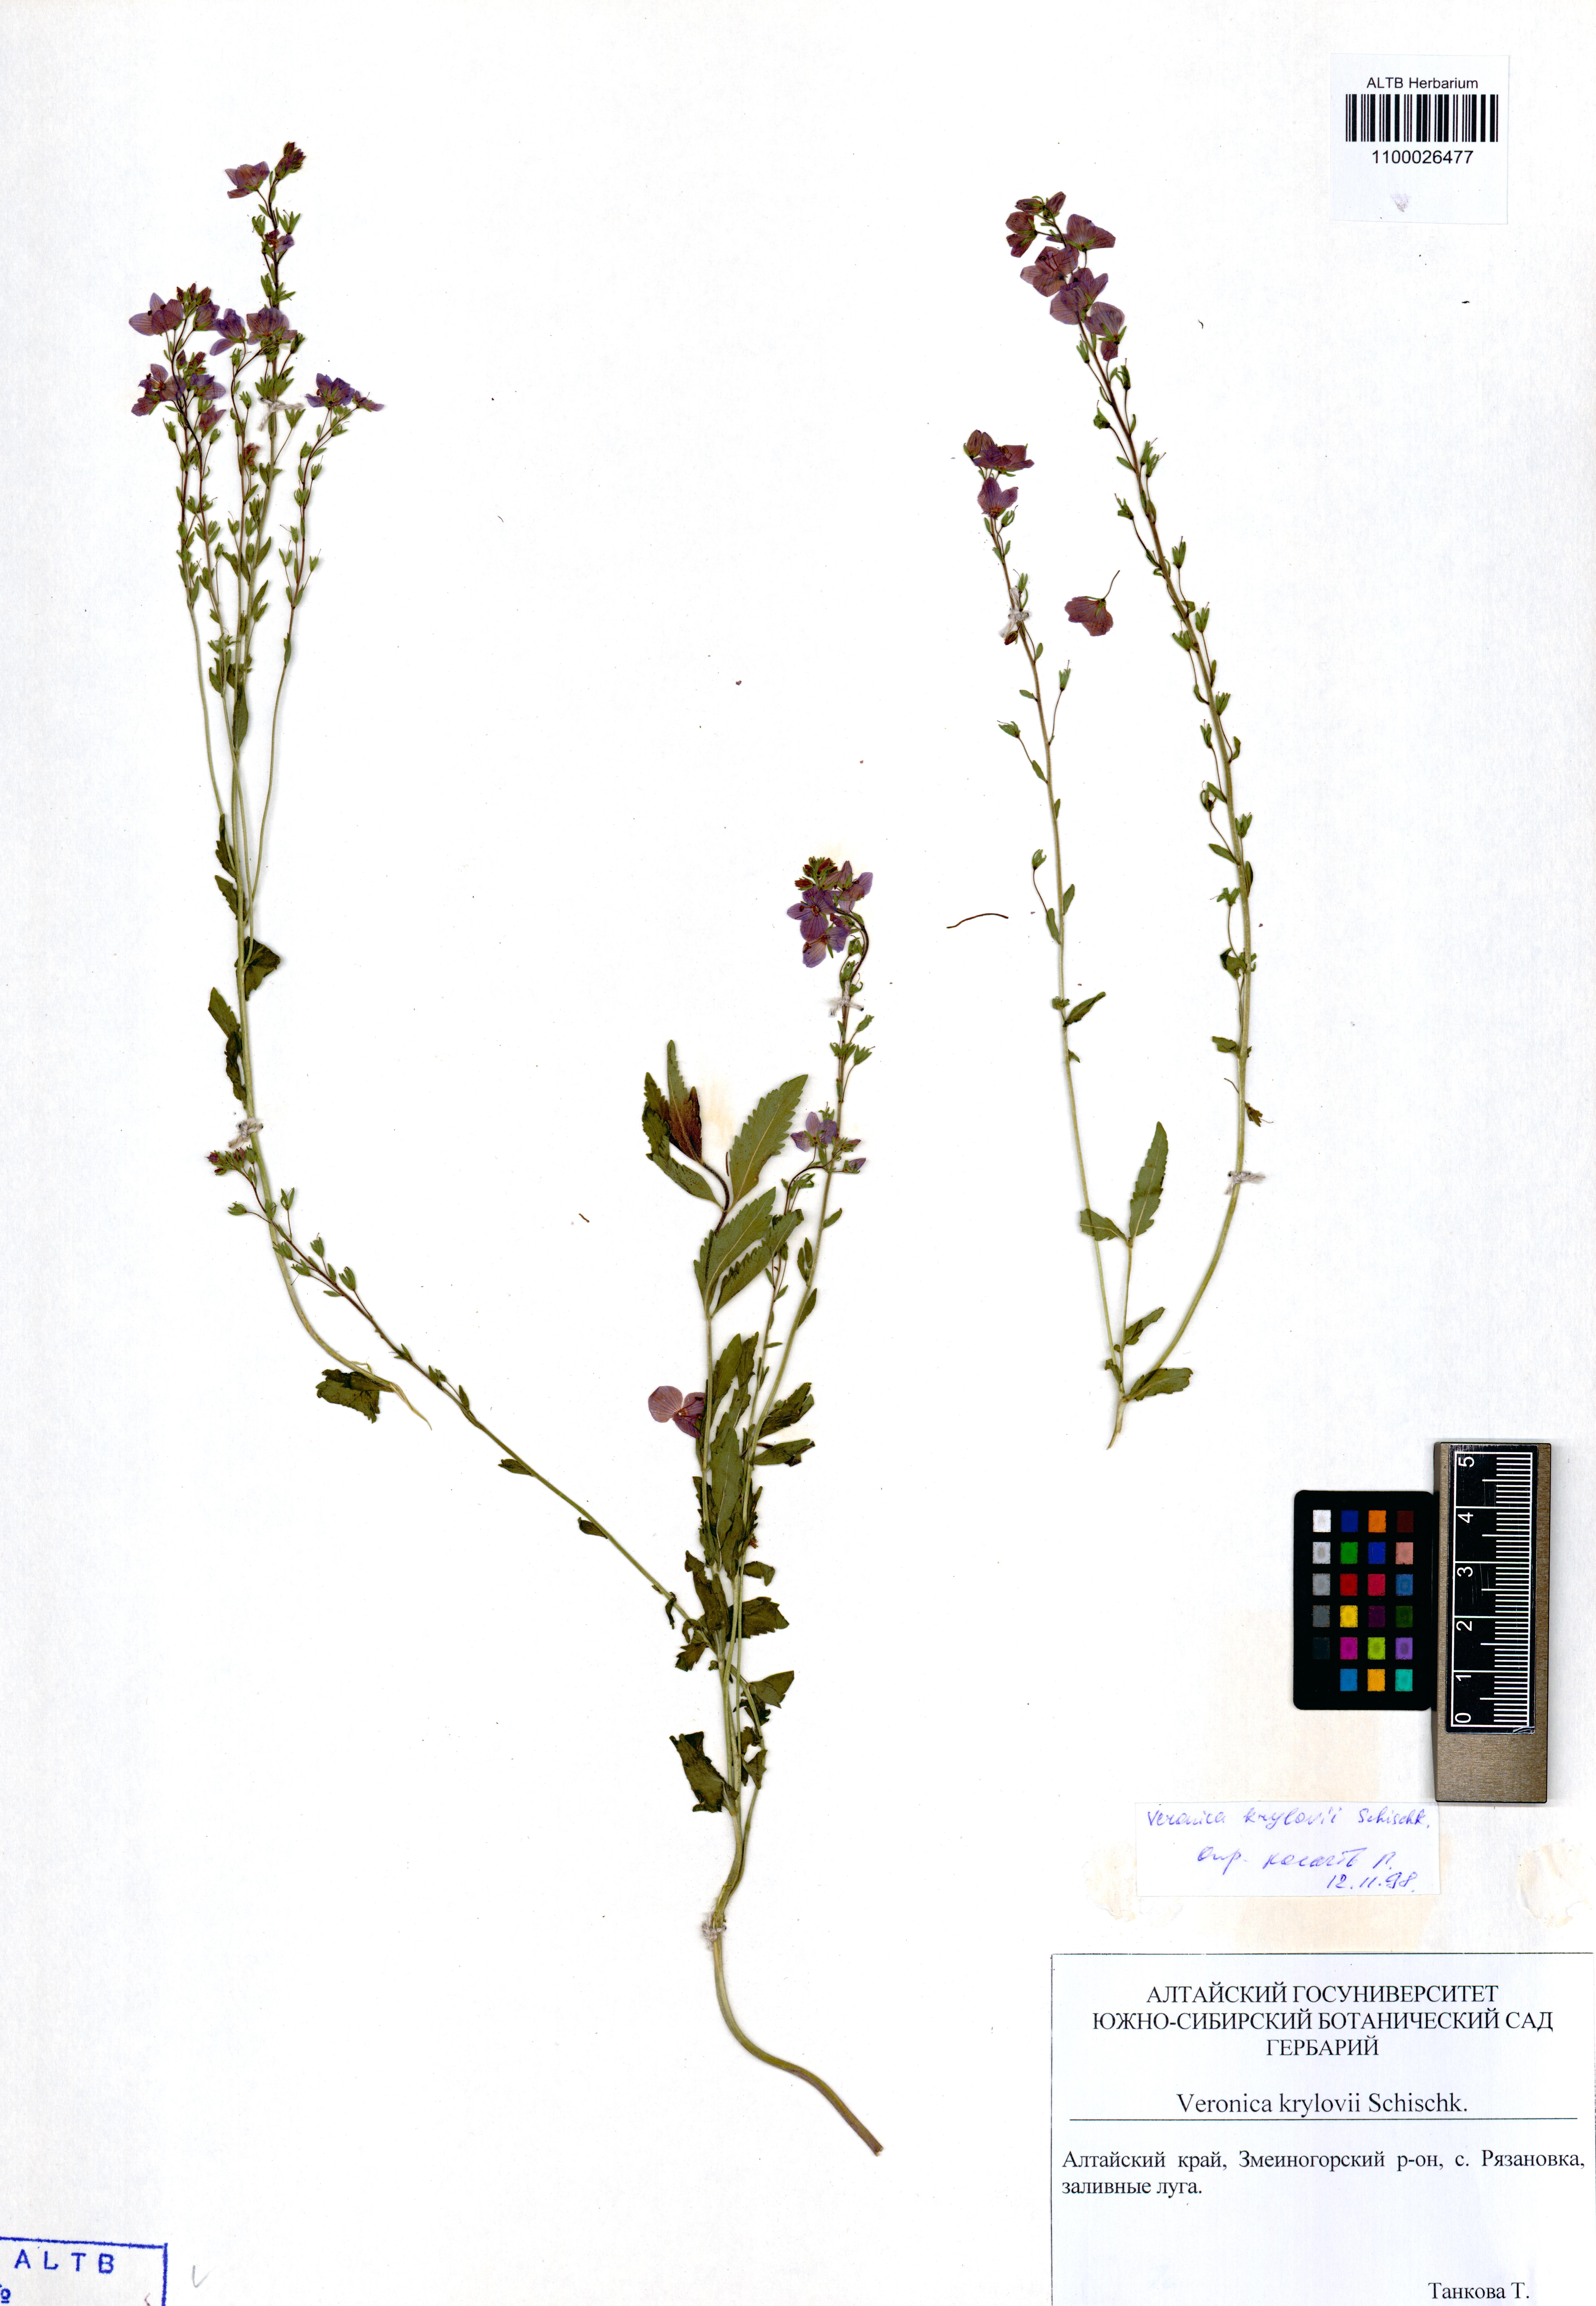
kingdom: Plantae
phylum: Tracheophyta
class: Magnoliopsida
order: Lamiales
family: Plantaginaceae
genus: Veronica
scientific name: Veronica krylovii
